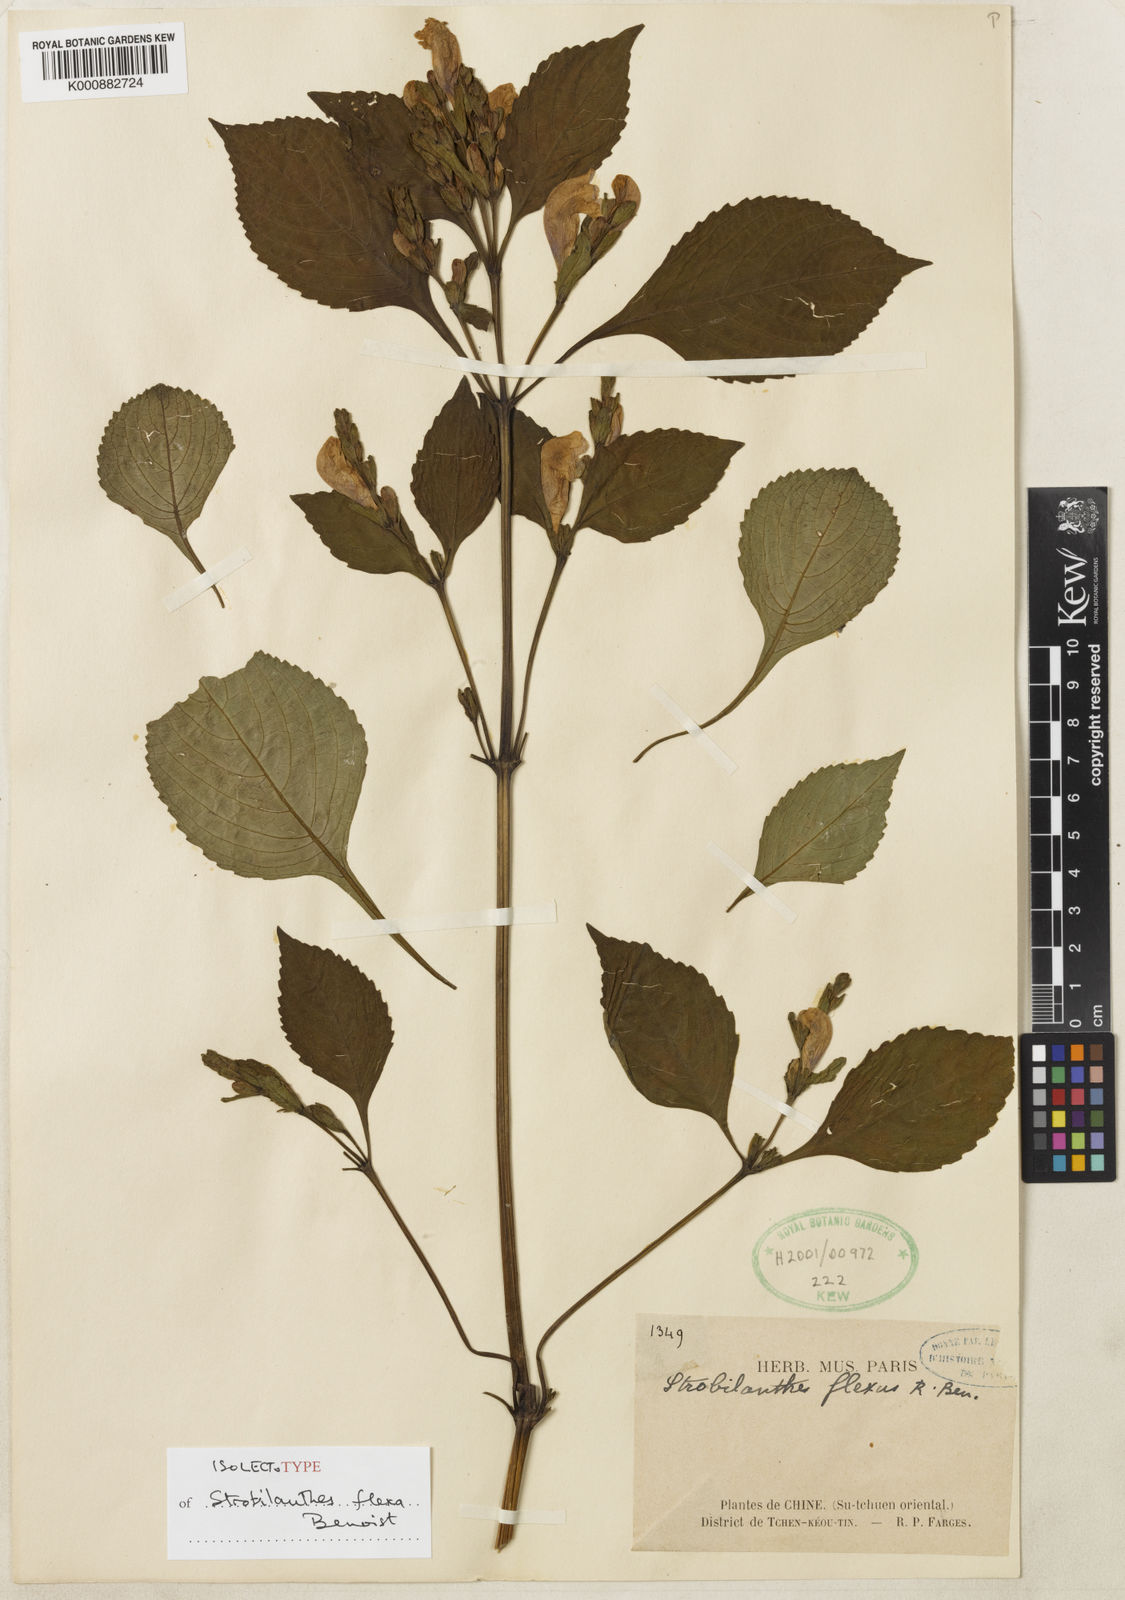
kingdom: Plantae
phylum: Tracheophyta
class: Magnoliopsida
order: Lamiales
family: Acanthaceae
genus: Strobilanthes
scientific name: Strobilanthes versicolor
